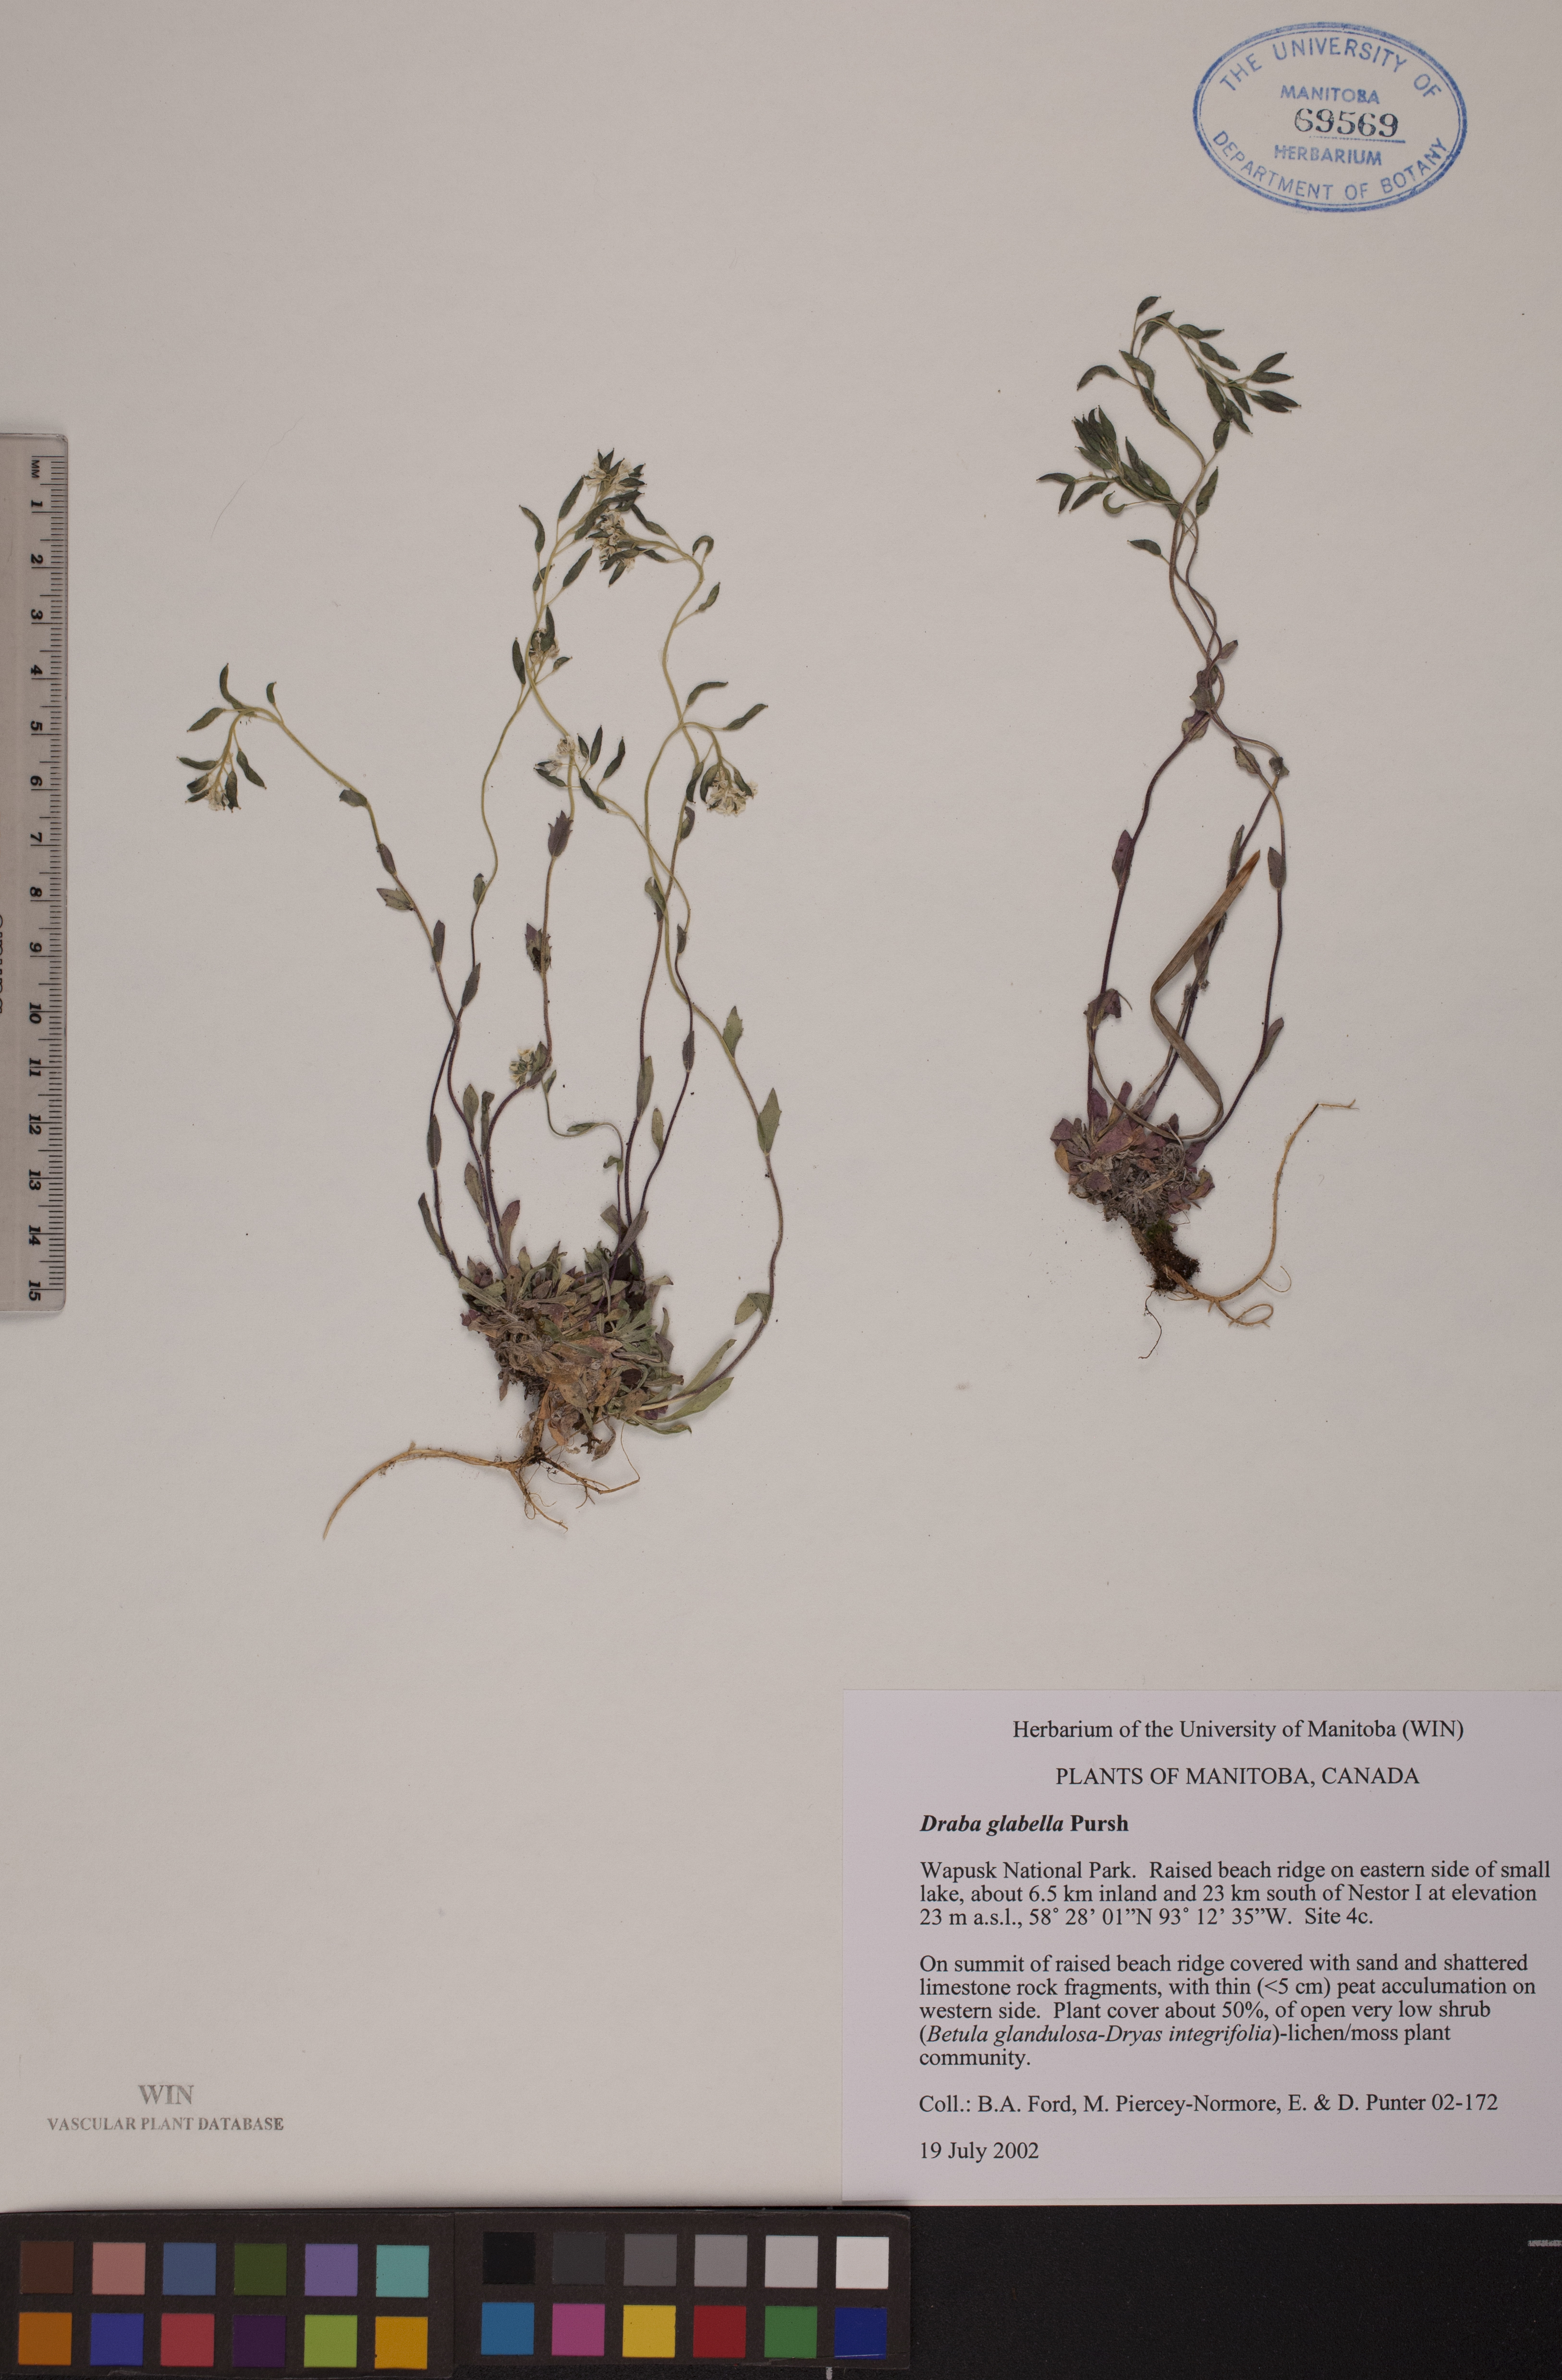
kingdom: Plantae
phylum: Tracheophyta
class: Magnoliopsida
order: Brassicales
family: Brassicaceae
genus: Draba
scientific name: Draba glabella
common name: Glaucous draba
